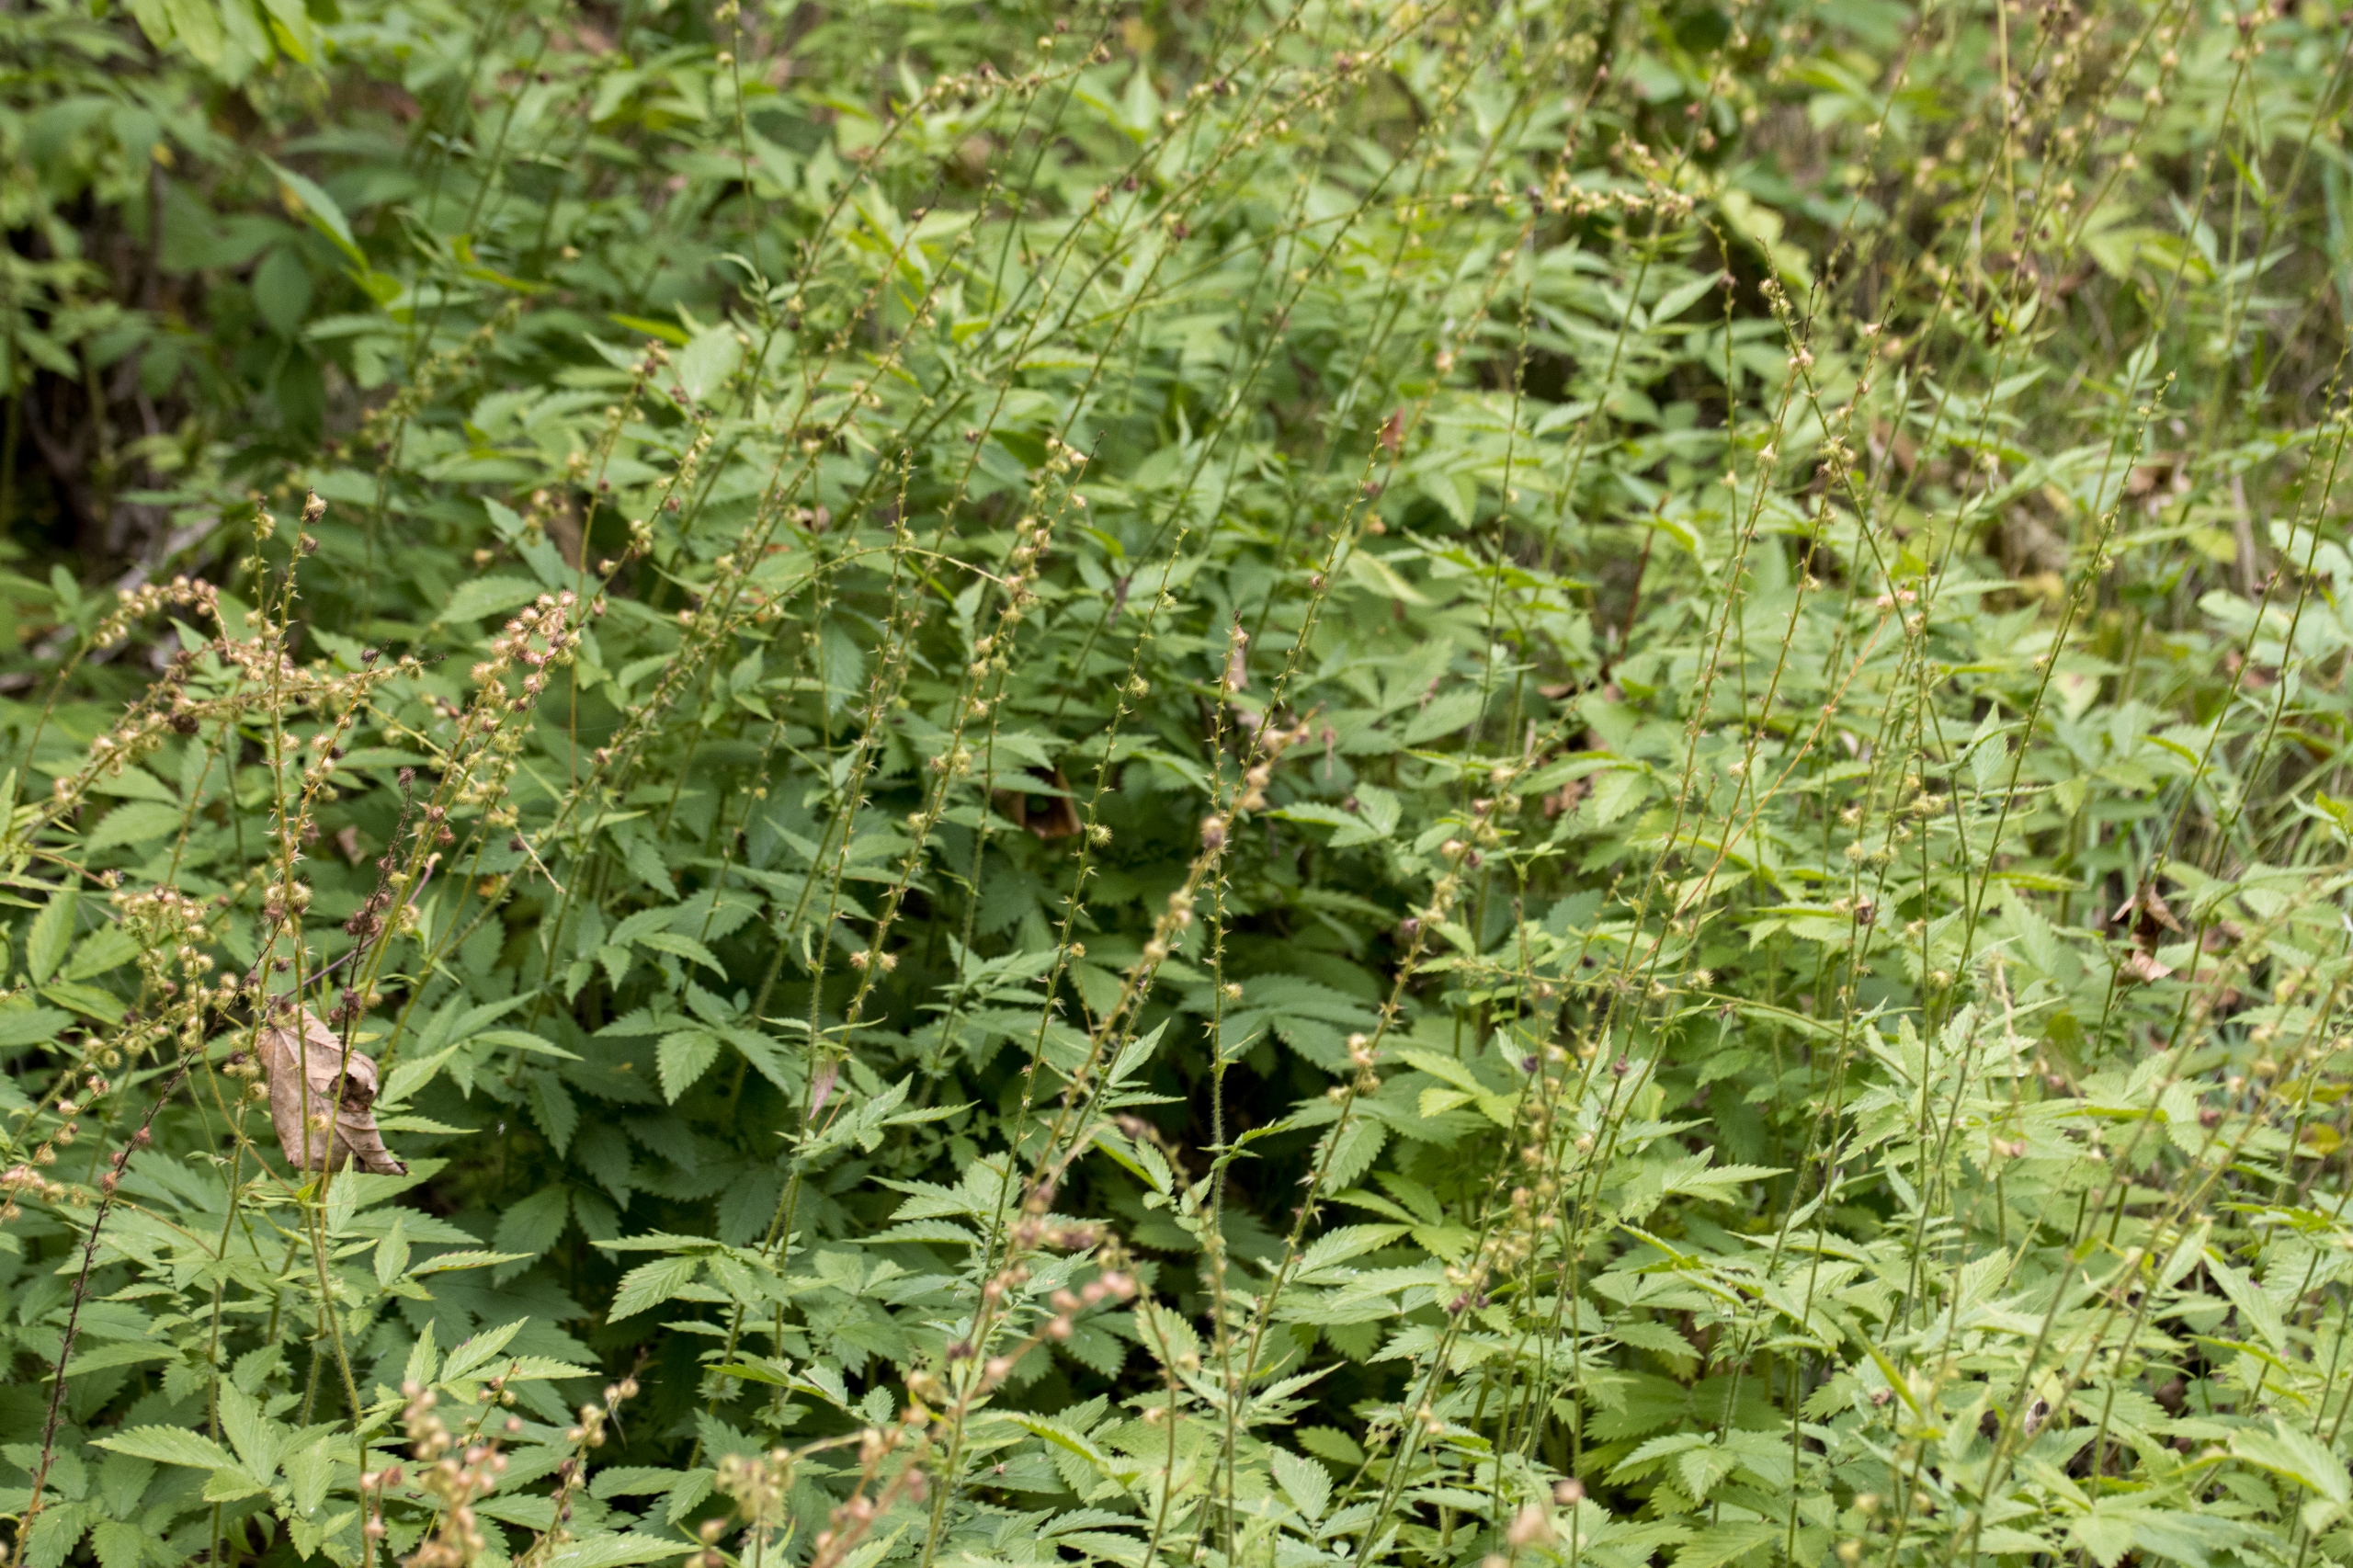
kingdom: Plantae
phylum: Tracheophyta
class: Magnoliopsida
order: Rosales
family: Rosaceae
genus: Agrimonia
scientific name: Agrimonia procera
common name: Vellugtende agermåne
